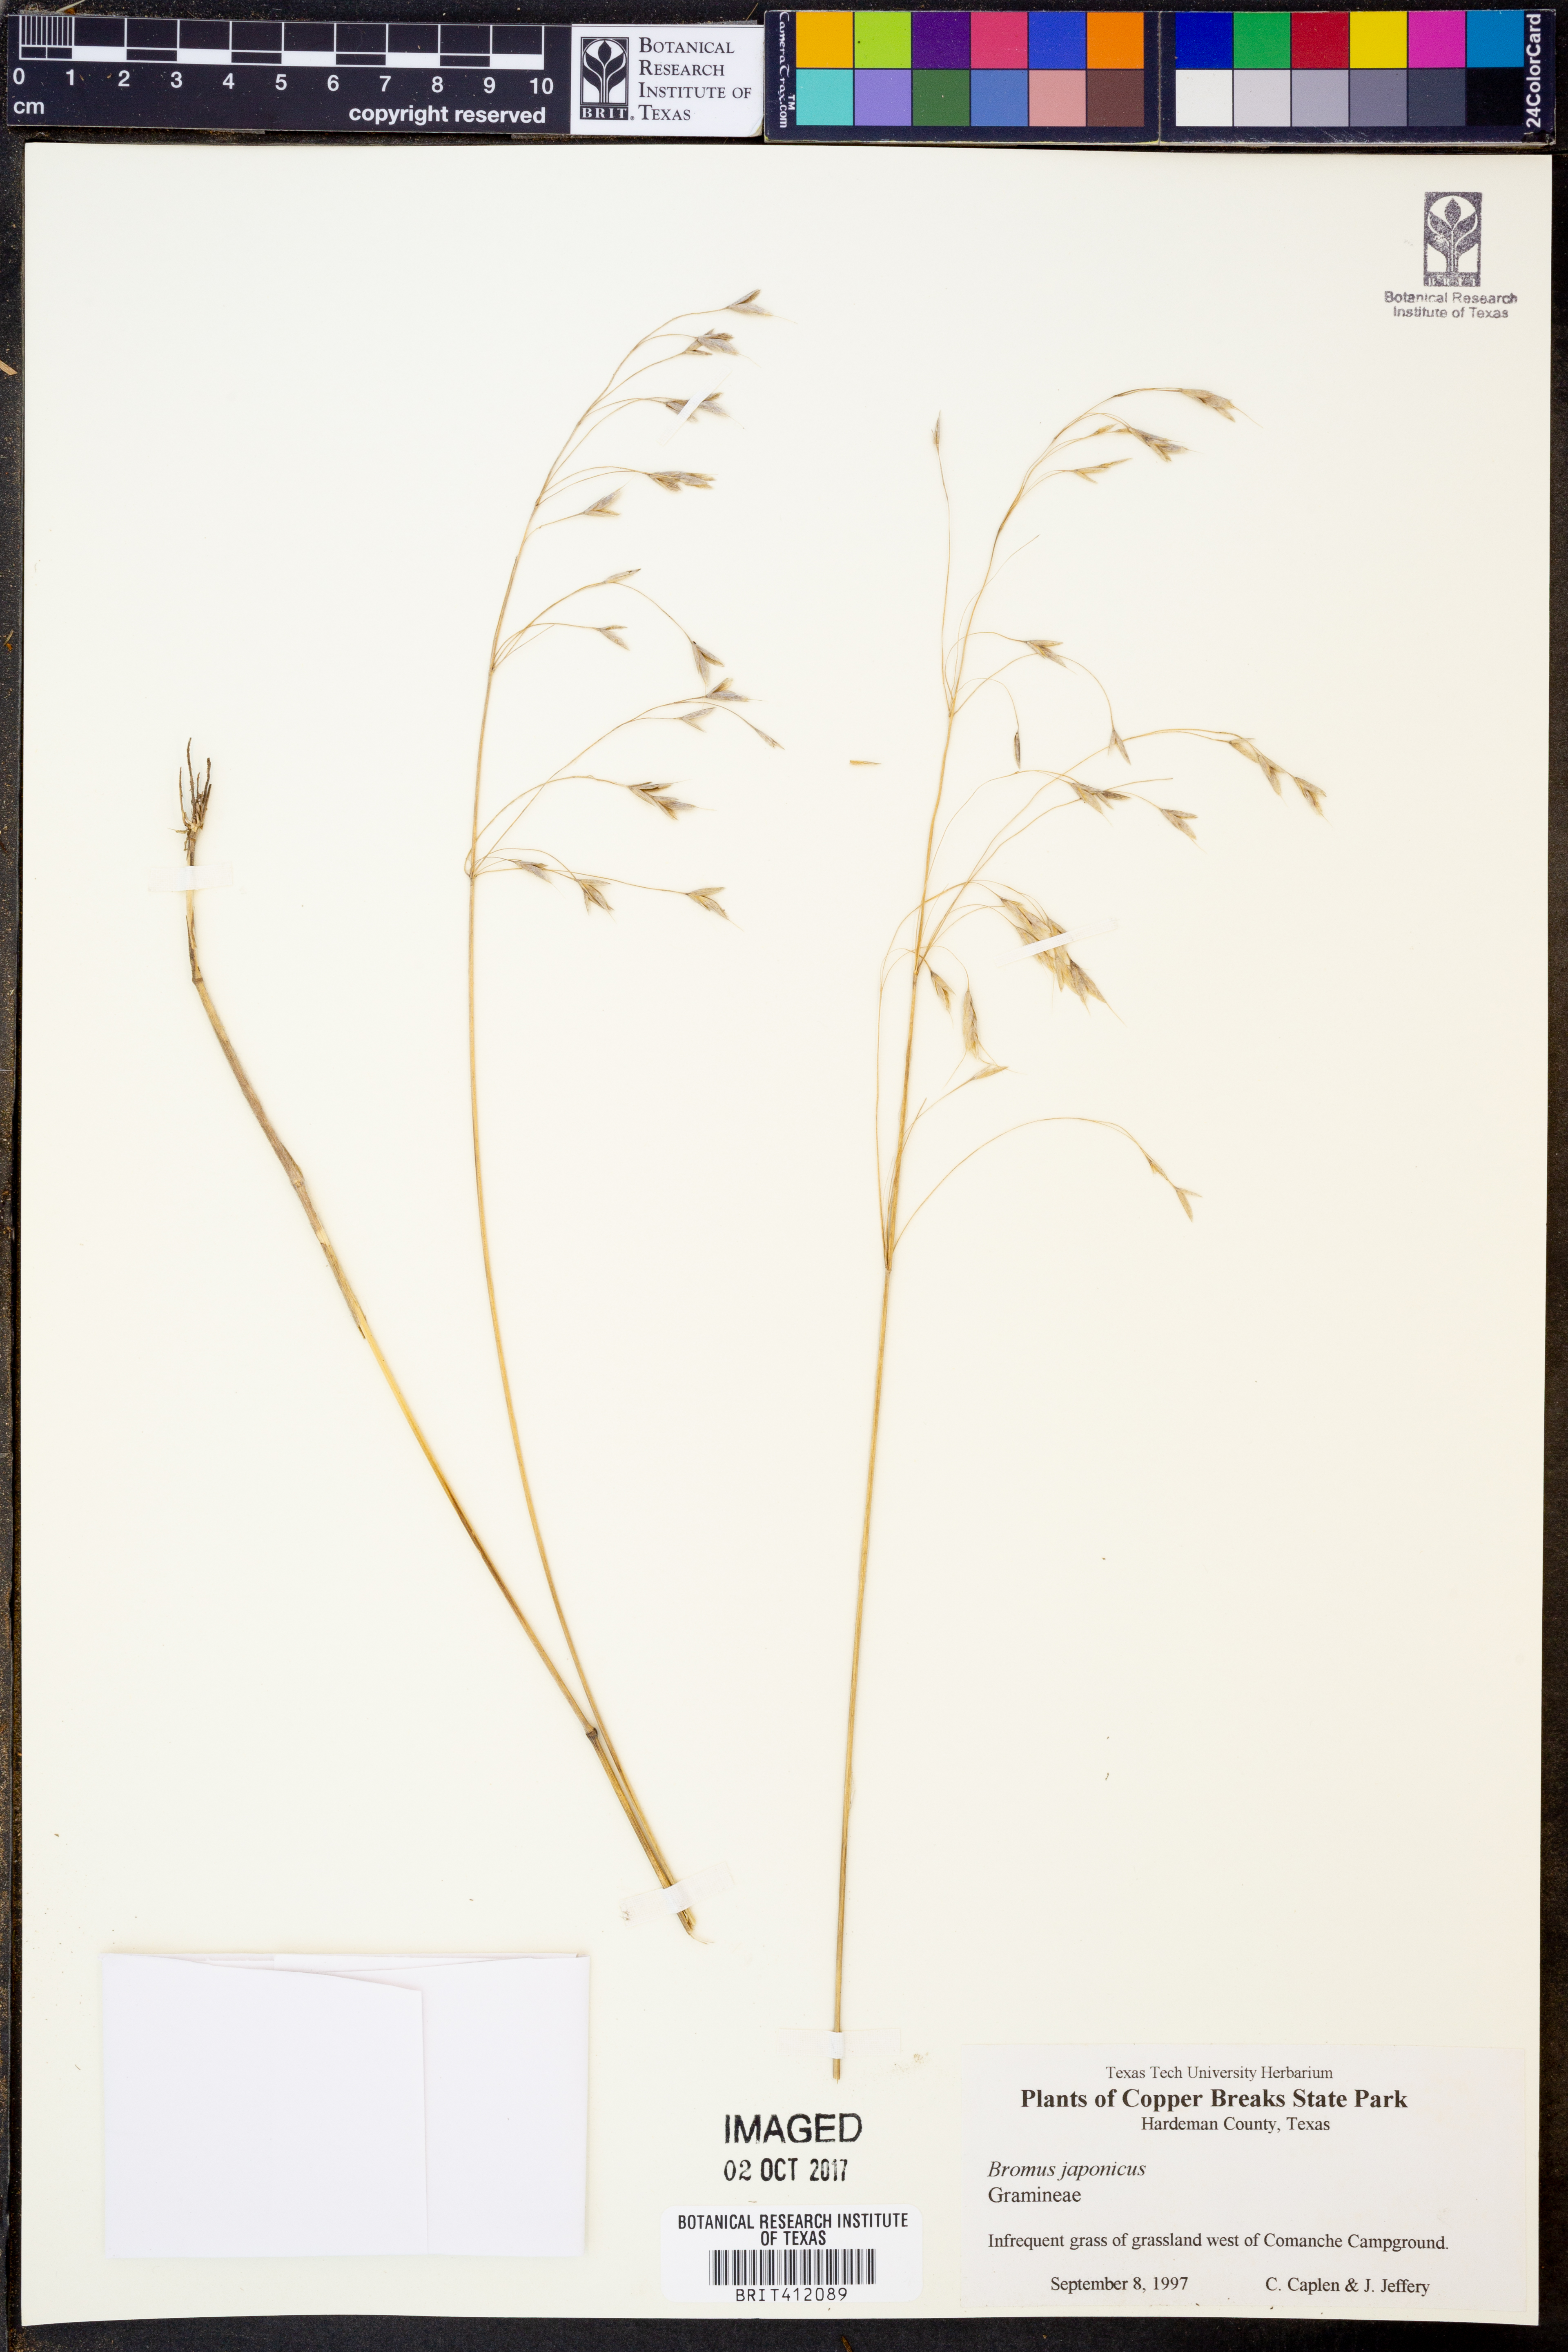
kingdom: Plantae
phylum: Tracheophyta
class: Liliopsida
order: Poales
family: Poaceae
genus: Bromus
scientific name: Bromus japonicus
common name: Japanese brome
